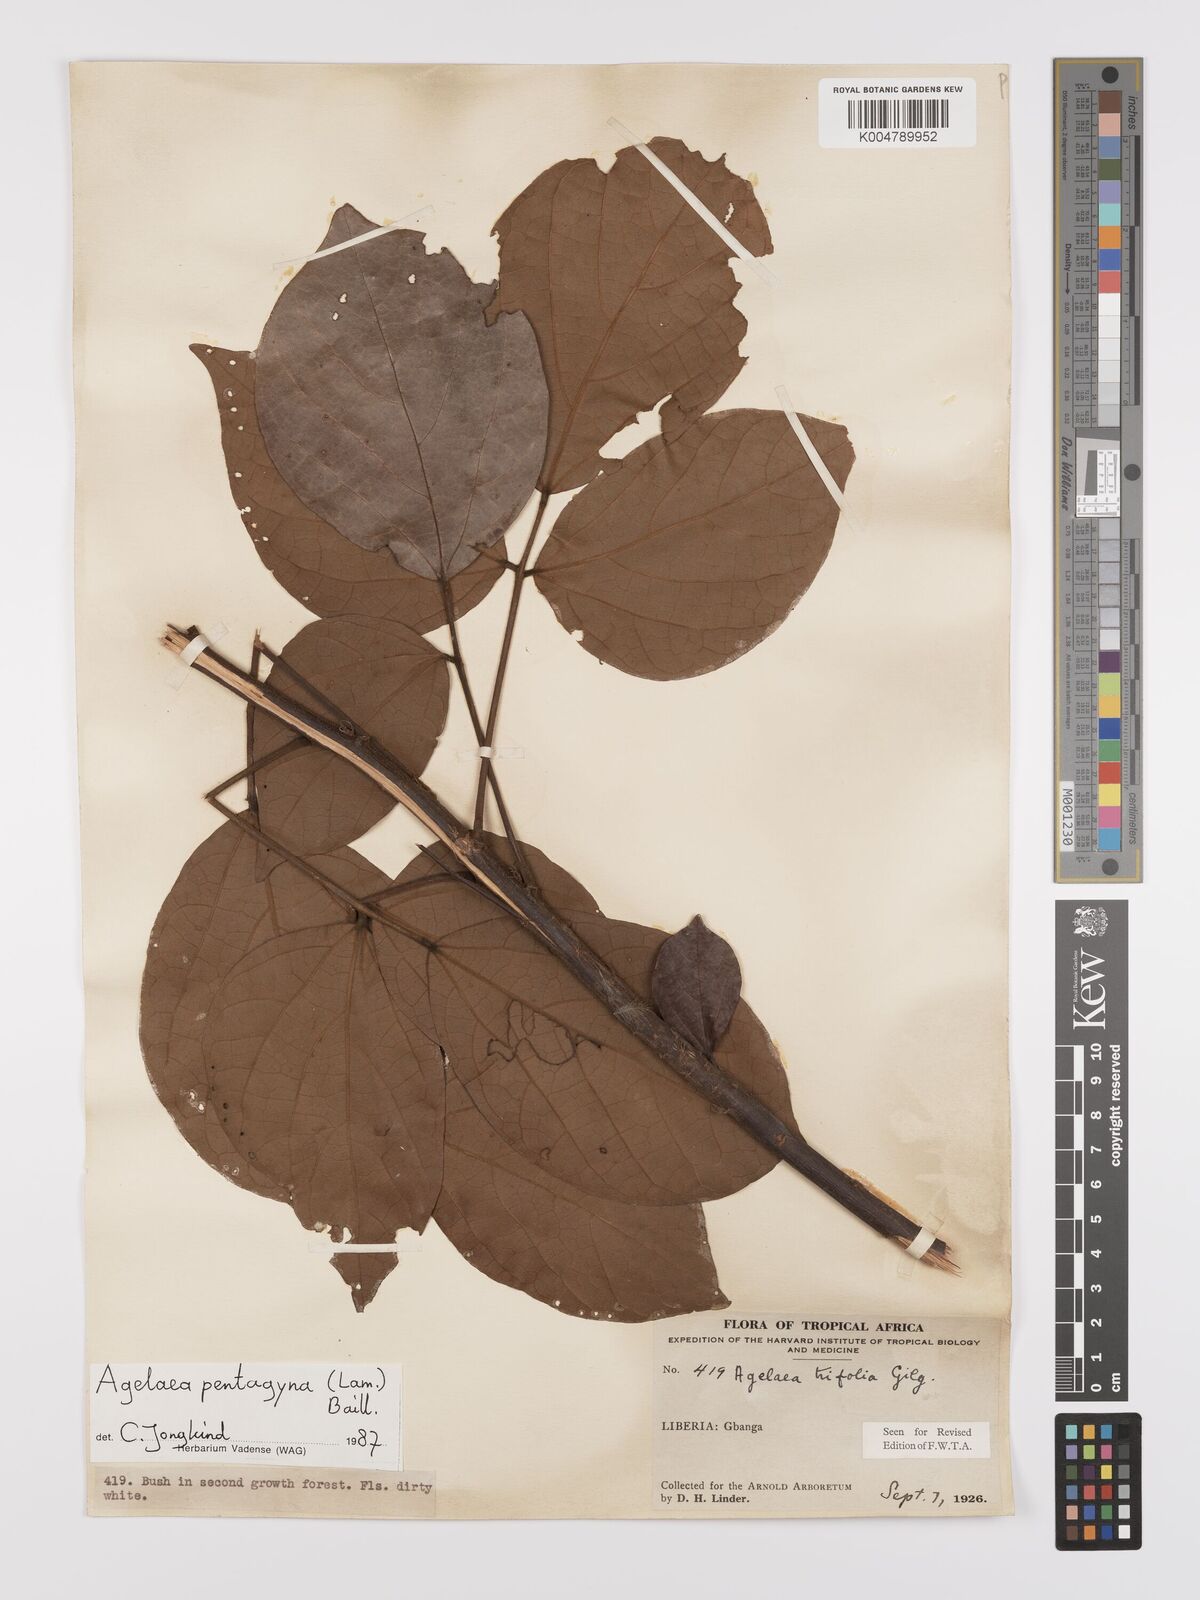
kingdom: Plantae
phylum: Tracheophyta
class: Magnoliopsida
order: Oxalidales
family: Connaraceae
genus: Agelaea
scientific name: Agelaea pentagyna
